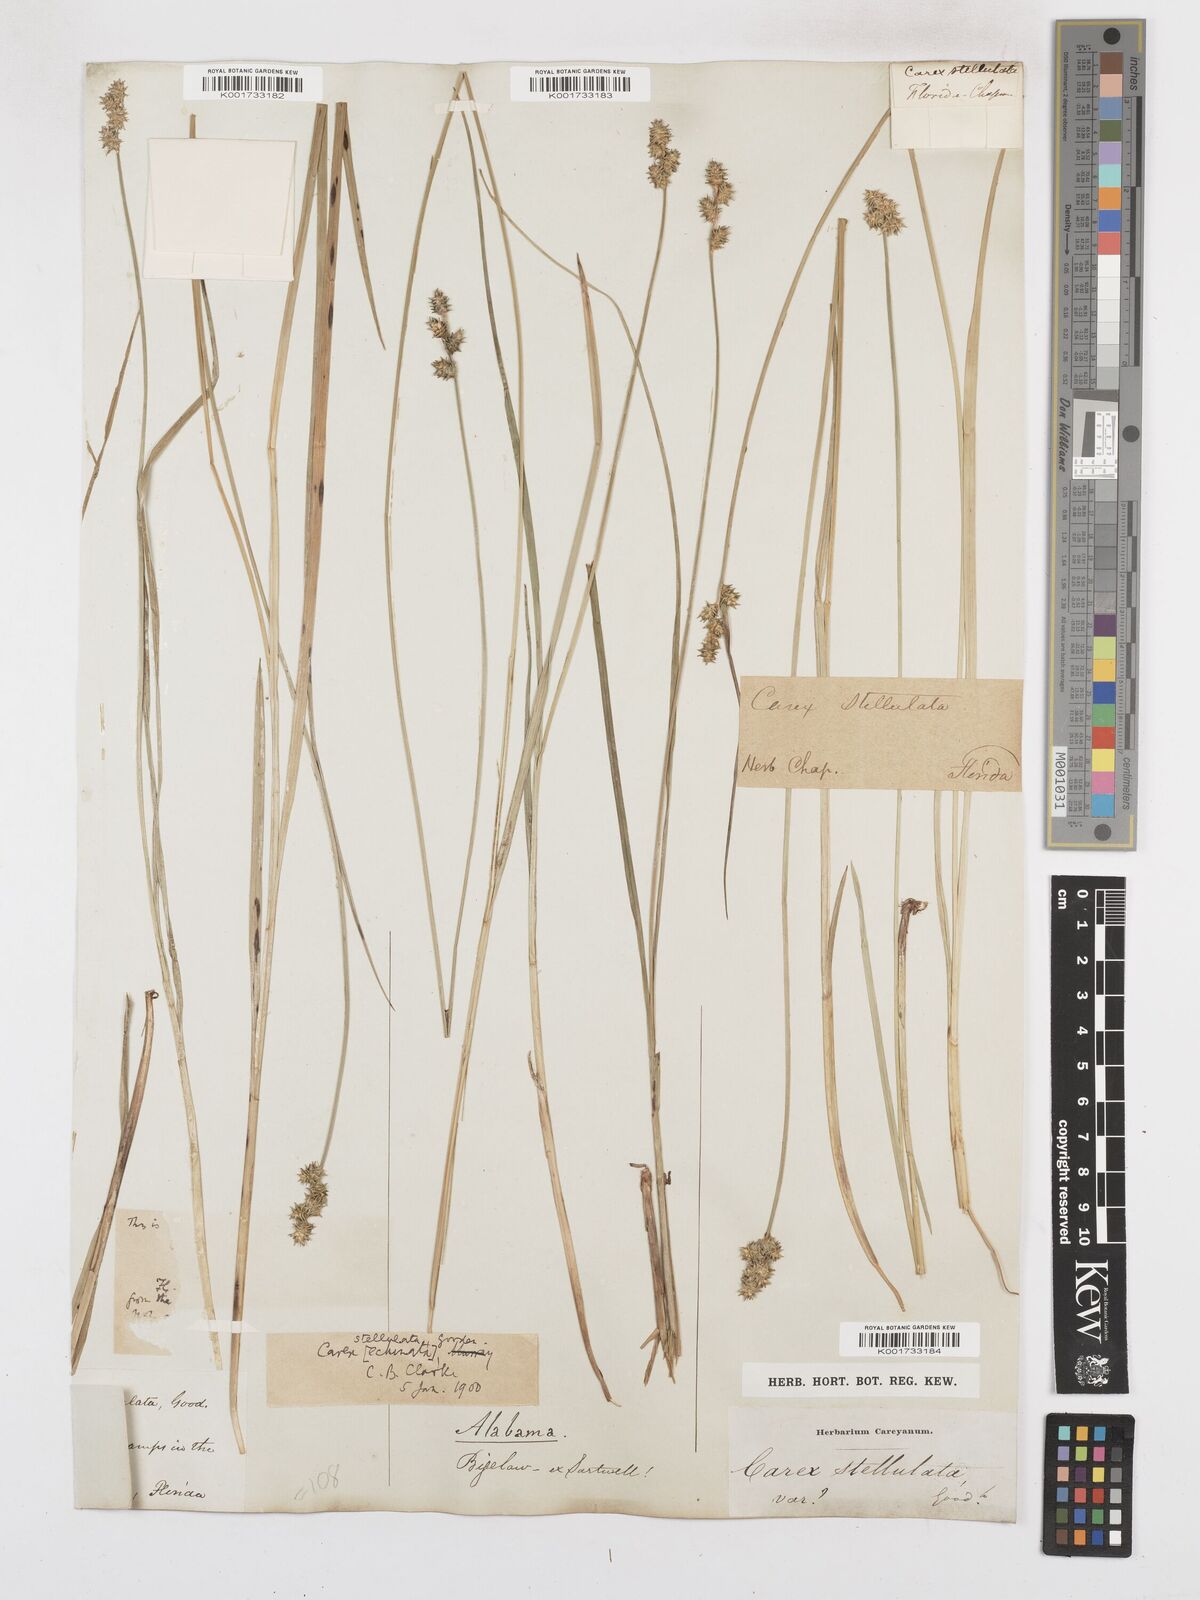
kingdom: Plantae
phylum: Tracheophyta
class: Liliopsida
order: Poales
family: Cyperaceae
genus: Carex
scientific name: Carex atlantica
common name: Atlantic sedge
